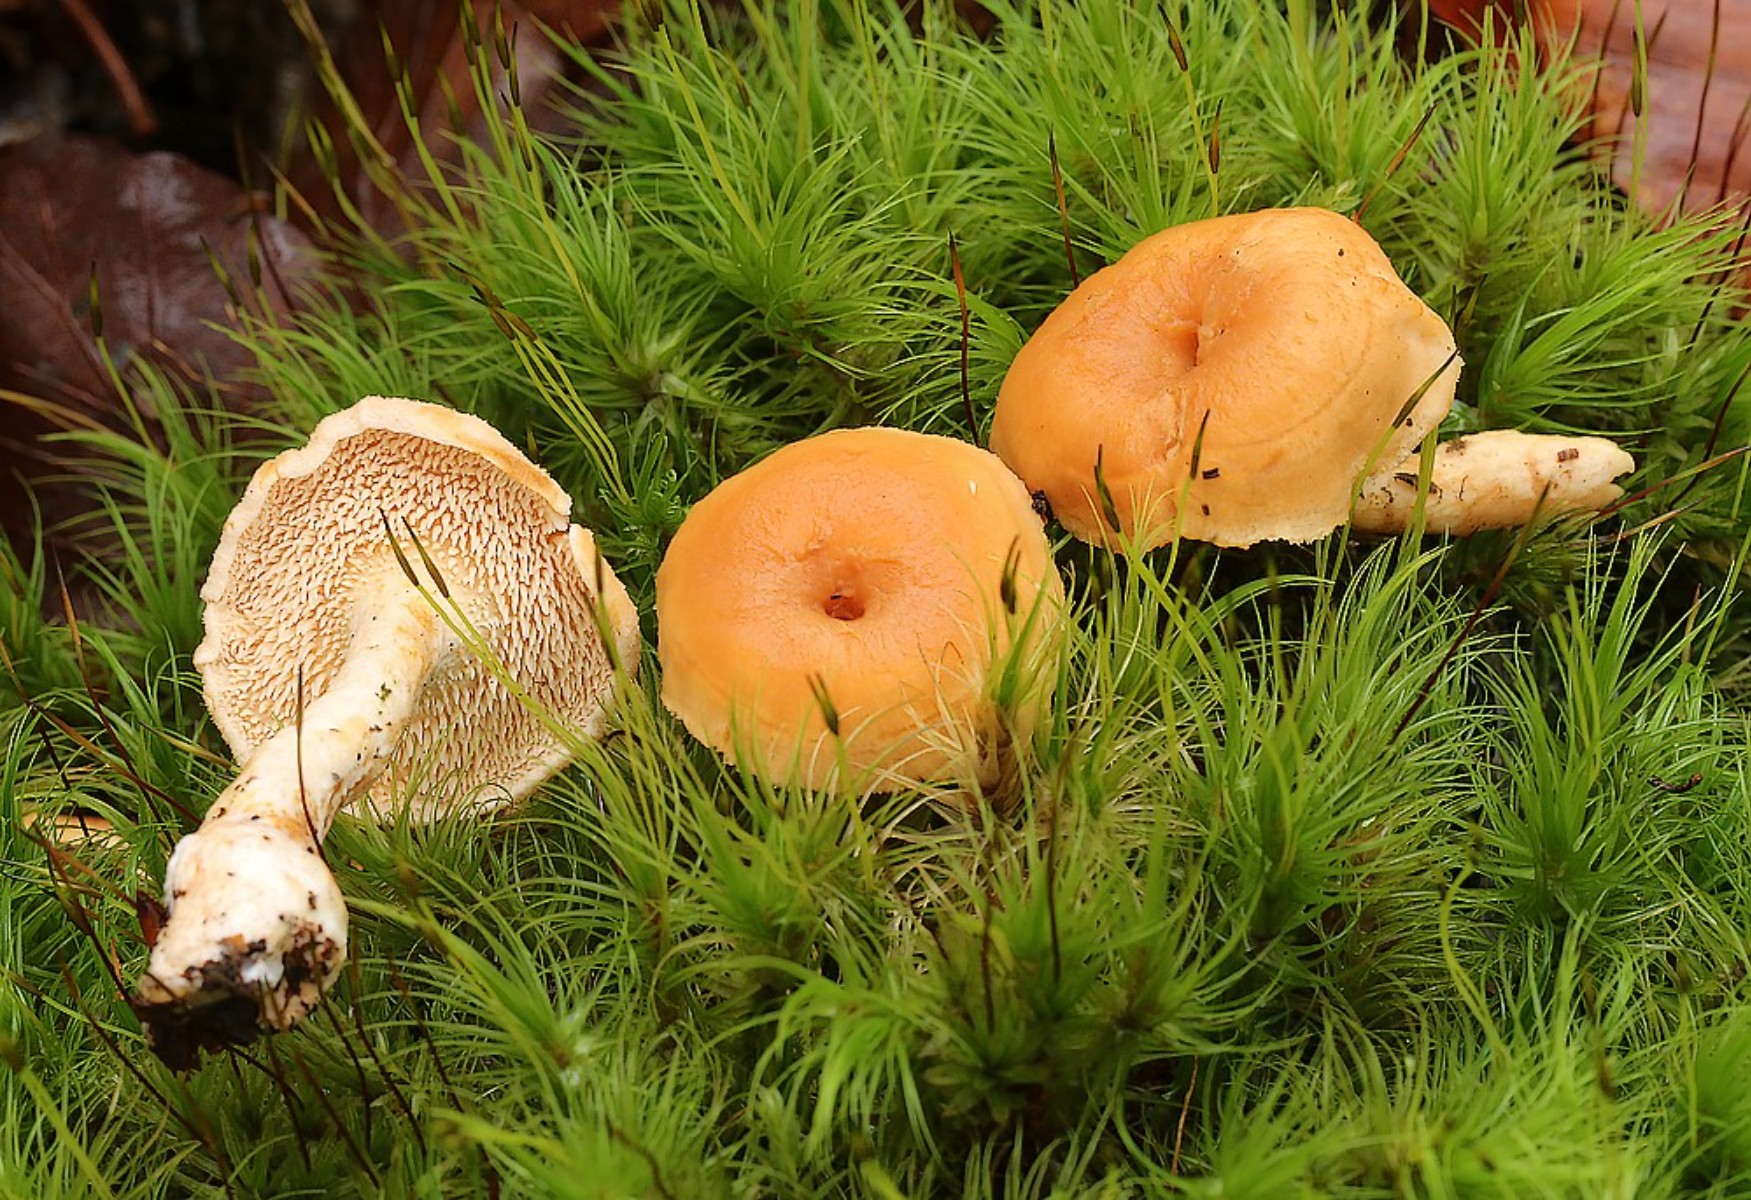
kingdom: Fungi
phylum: Basidiomycota
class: Agaricomycetes
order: Cantharellales
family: Hydnaceae
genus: Hydnum
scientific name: Hydnum umbilicatum
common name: navle-pigsvamp
